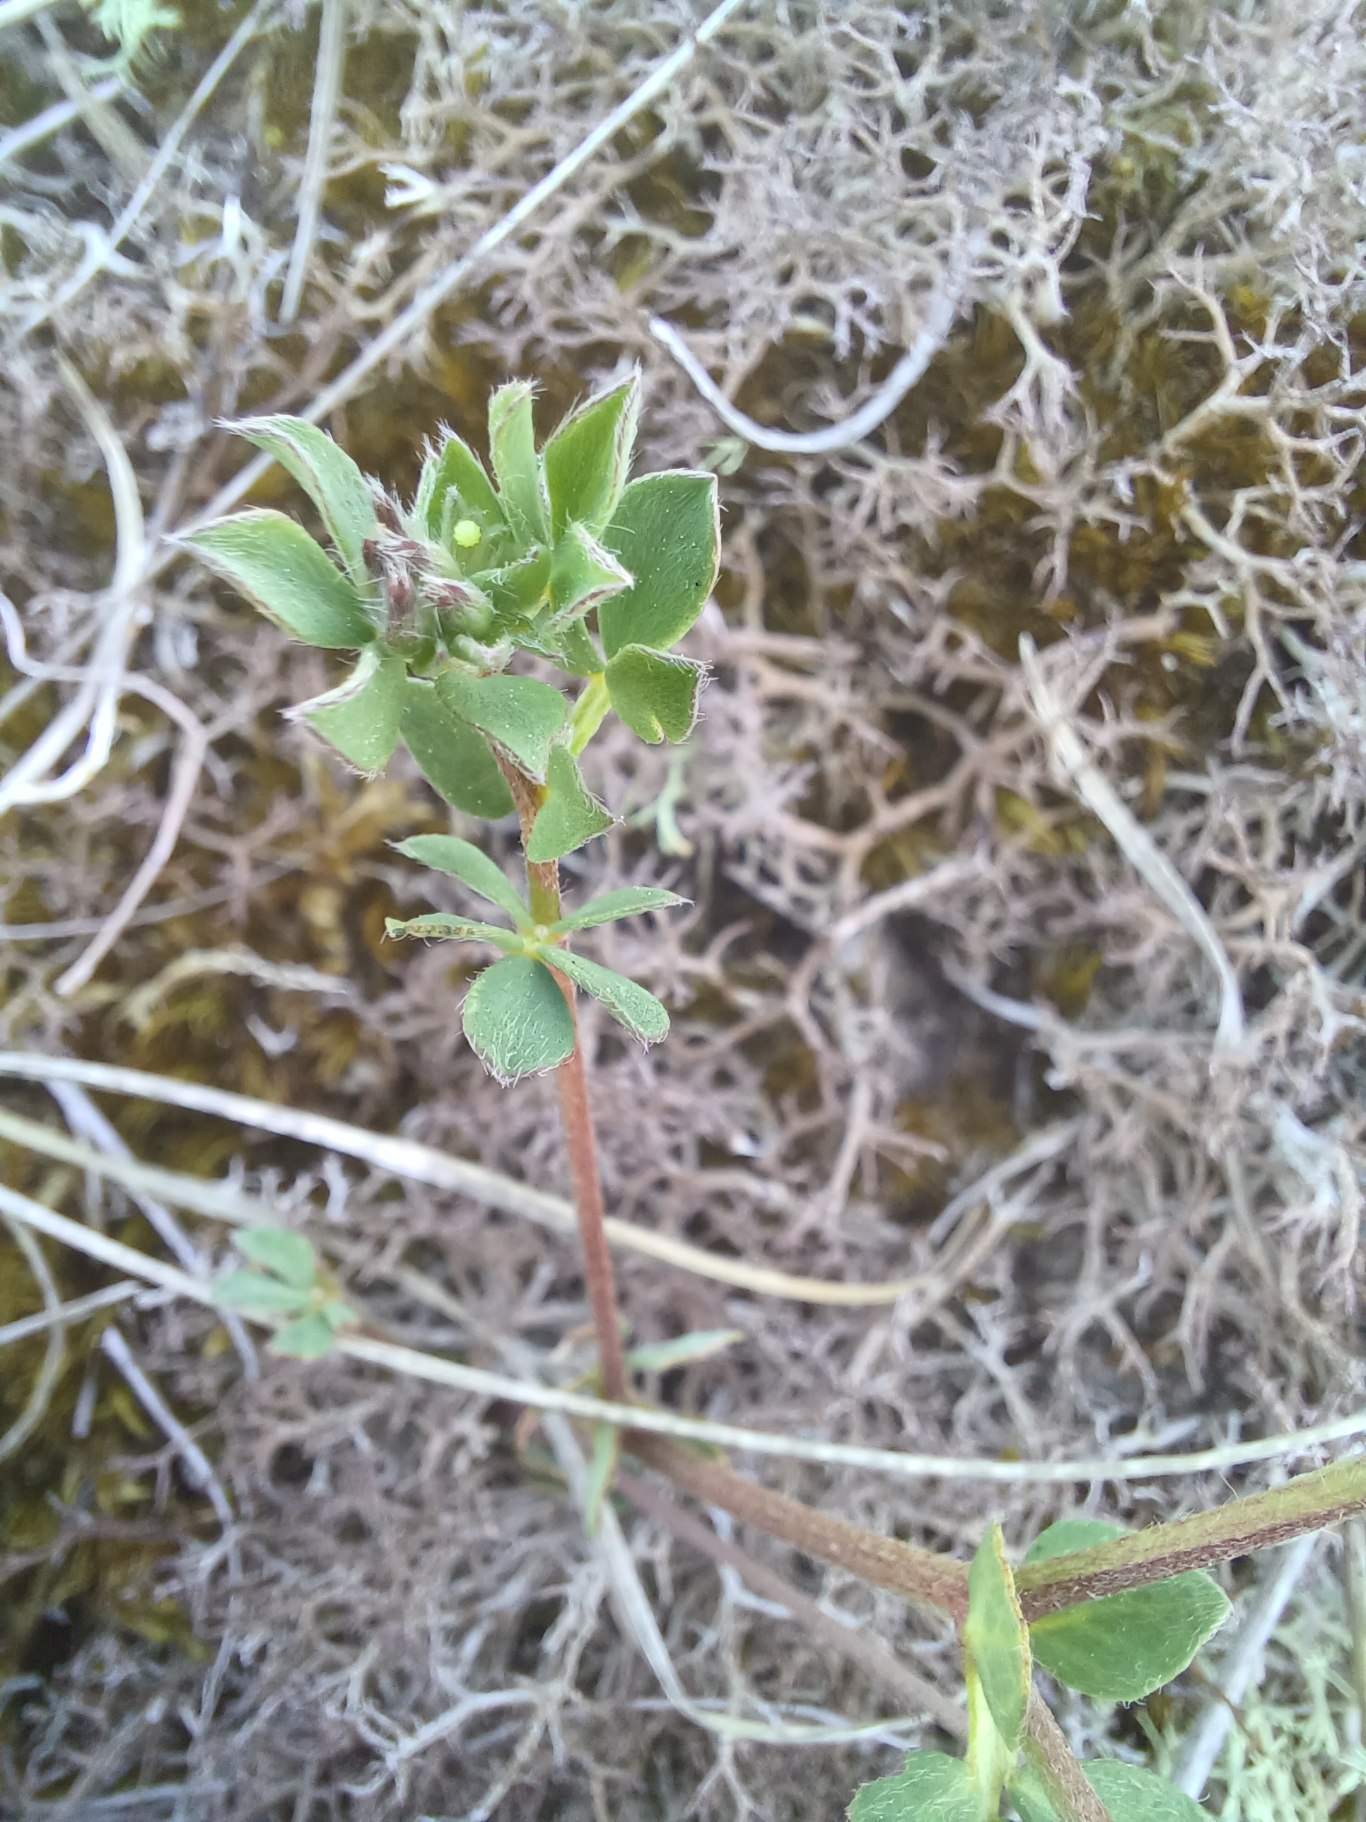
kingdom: Plantae
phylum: Tracheophyta
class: Magnoliopsida
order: Fabales
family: Fabaceae
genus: Lotus
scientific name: Lotus corniculatus
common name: Almindelig kællingetand
